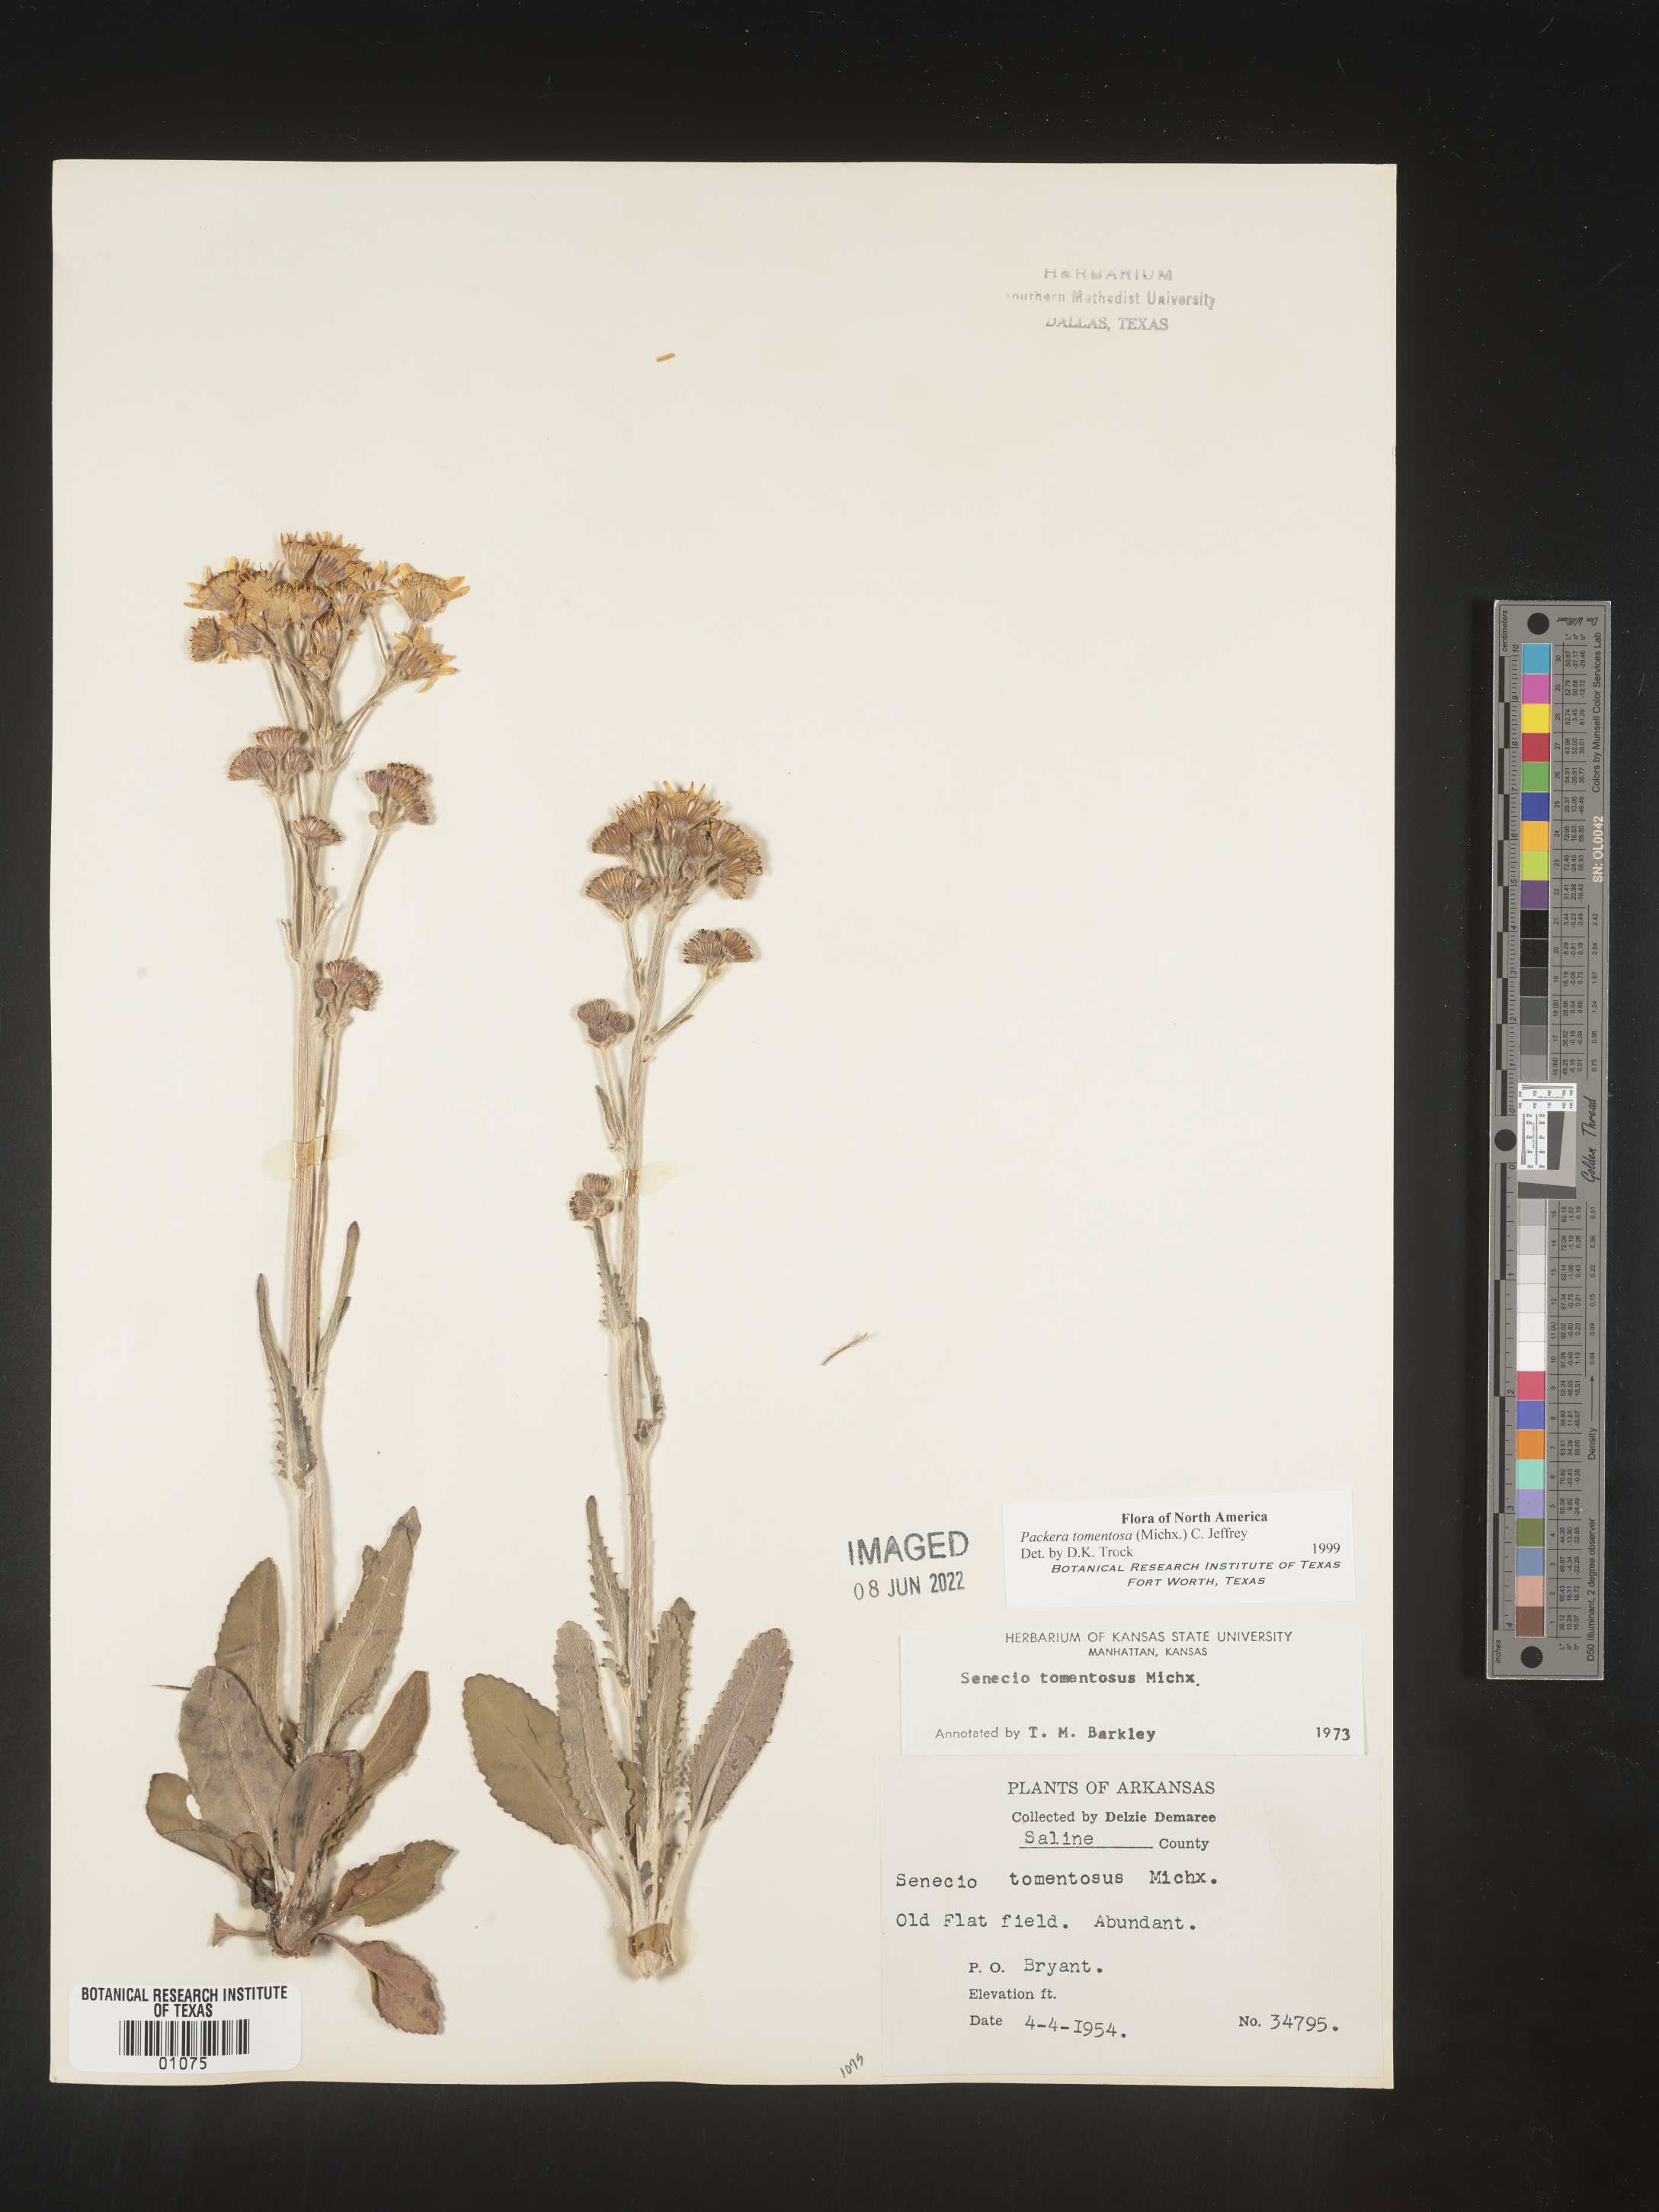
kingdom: Plantae
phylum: Tracheophyta
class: Magnoliopsida
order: Asterales
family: Asteraceae
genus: Packera
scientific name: Packera dubia
